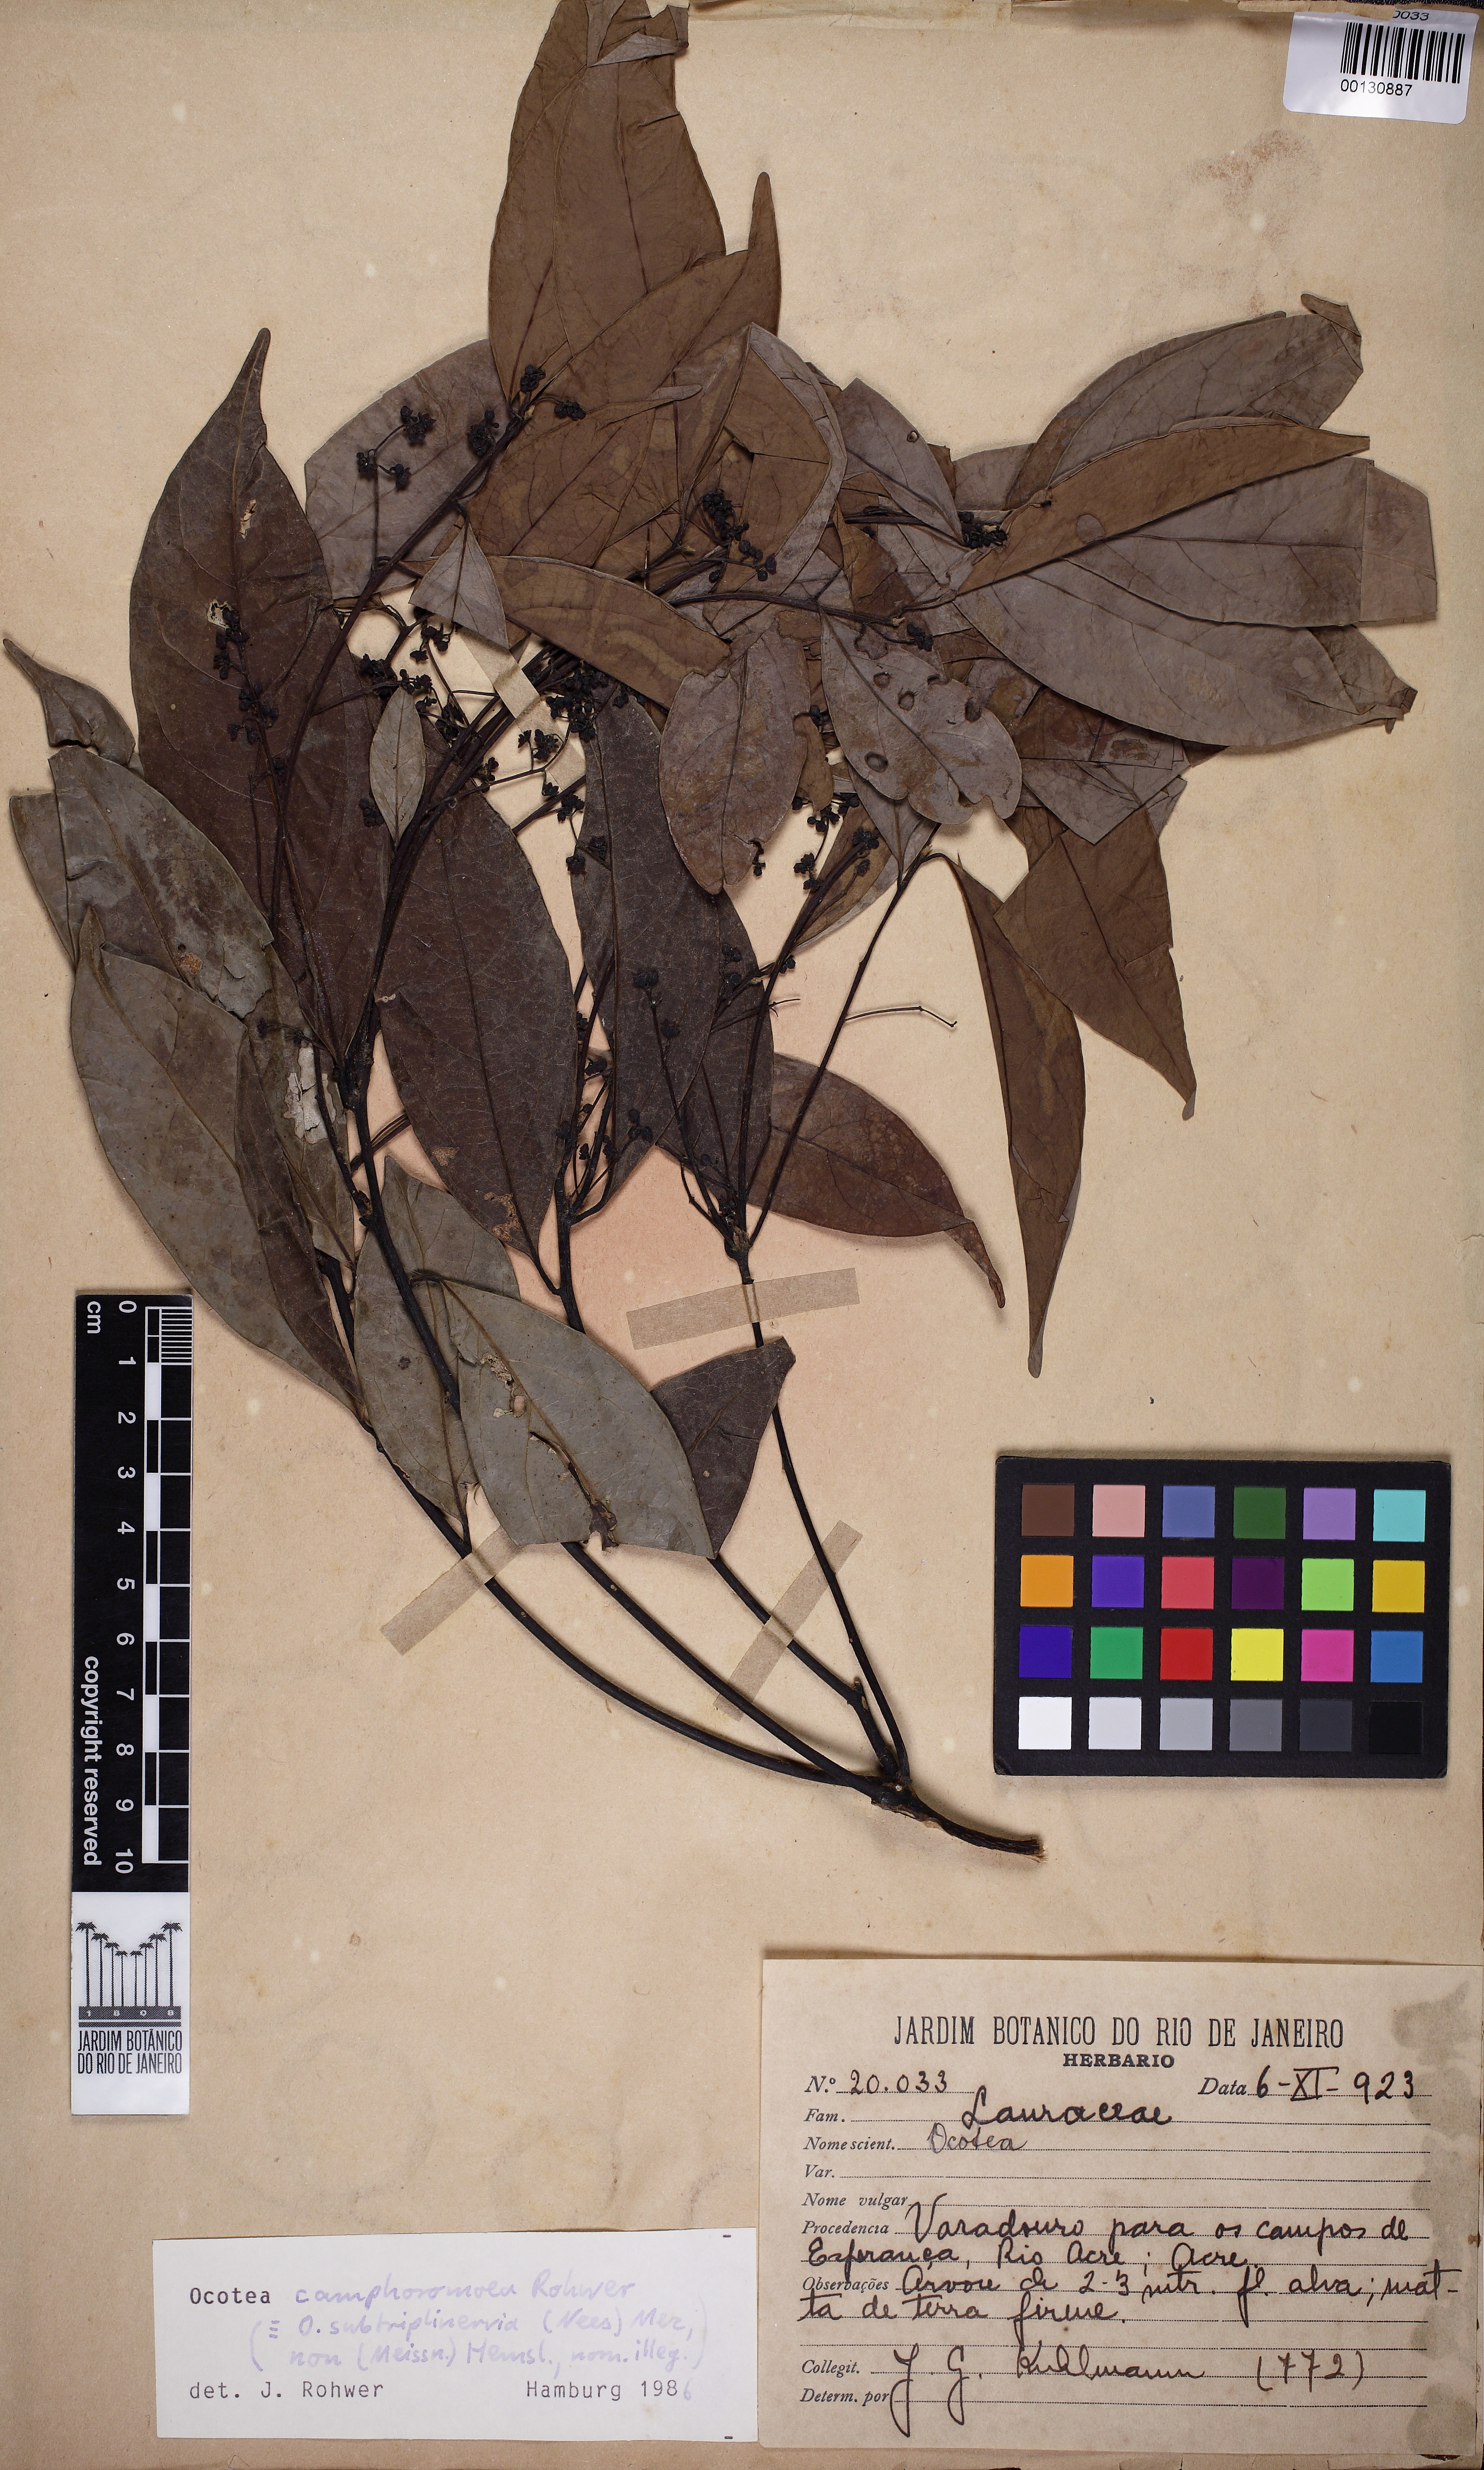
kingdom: Plantae
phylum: Tracheophyta
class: Magnoliopsida
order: Laurales
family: Lauraceae
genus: Ocotea
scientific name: Ocotea camphoromoea
